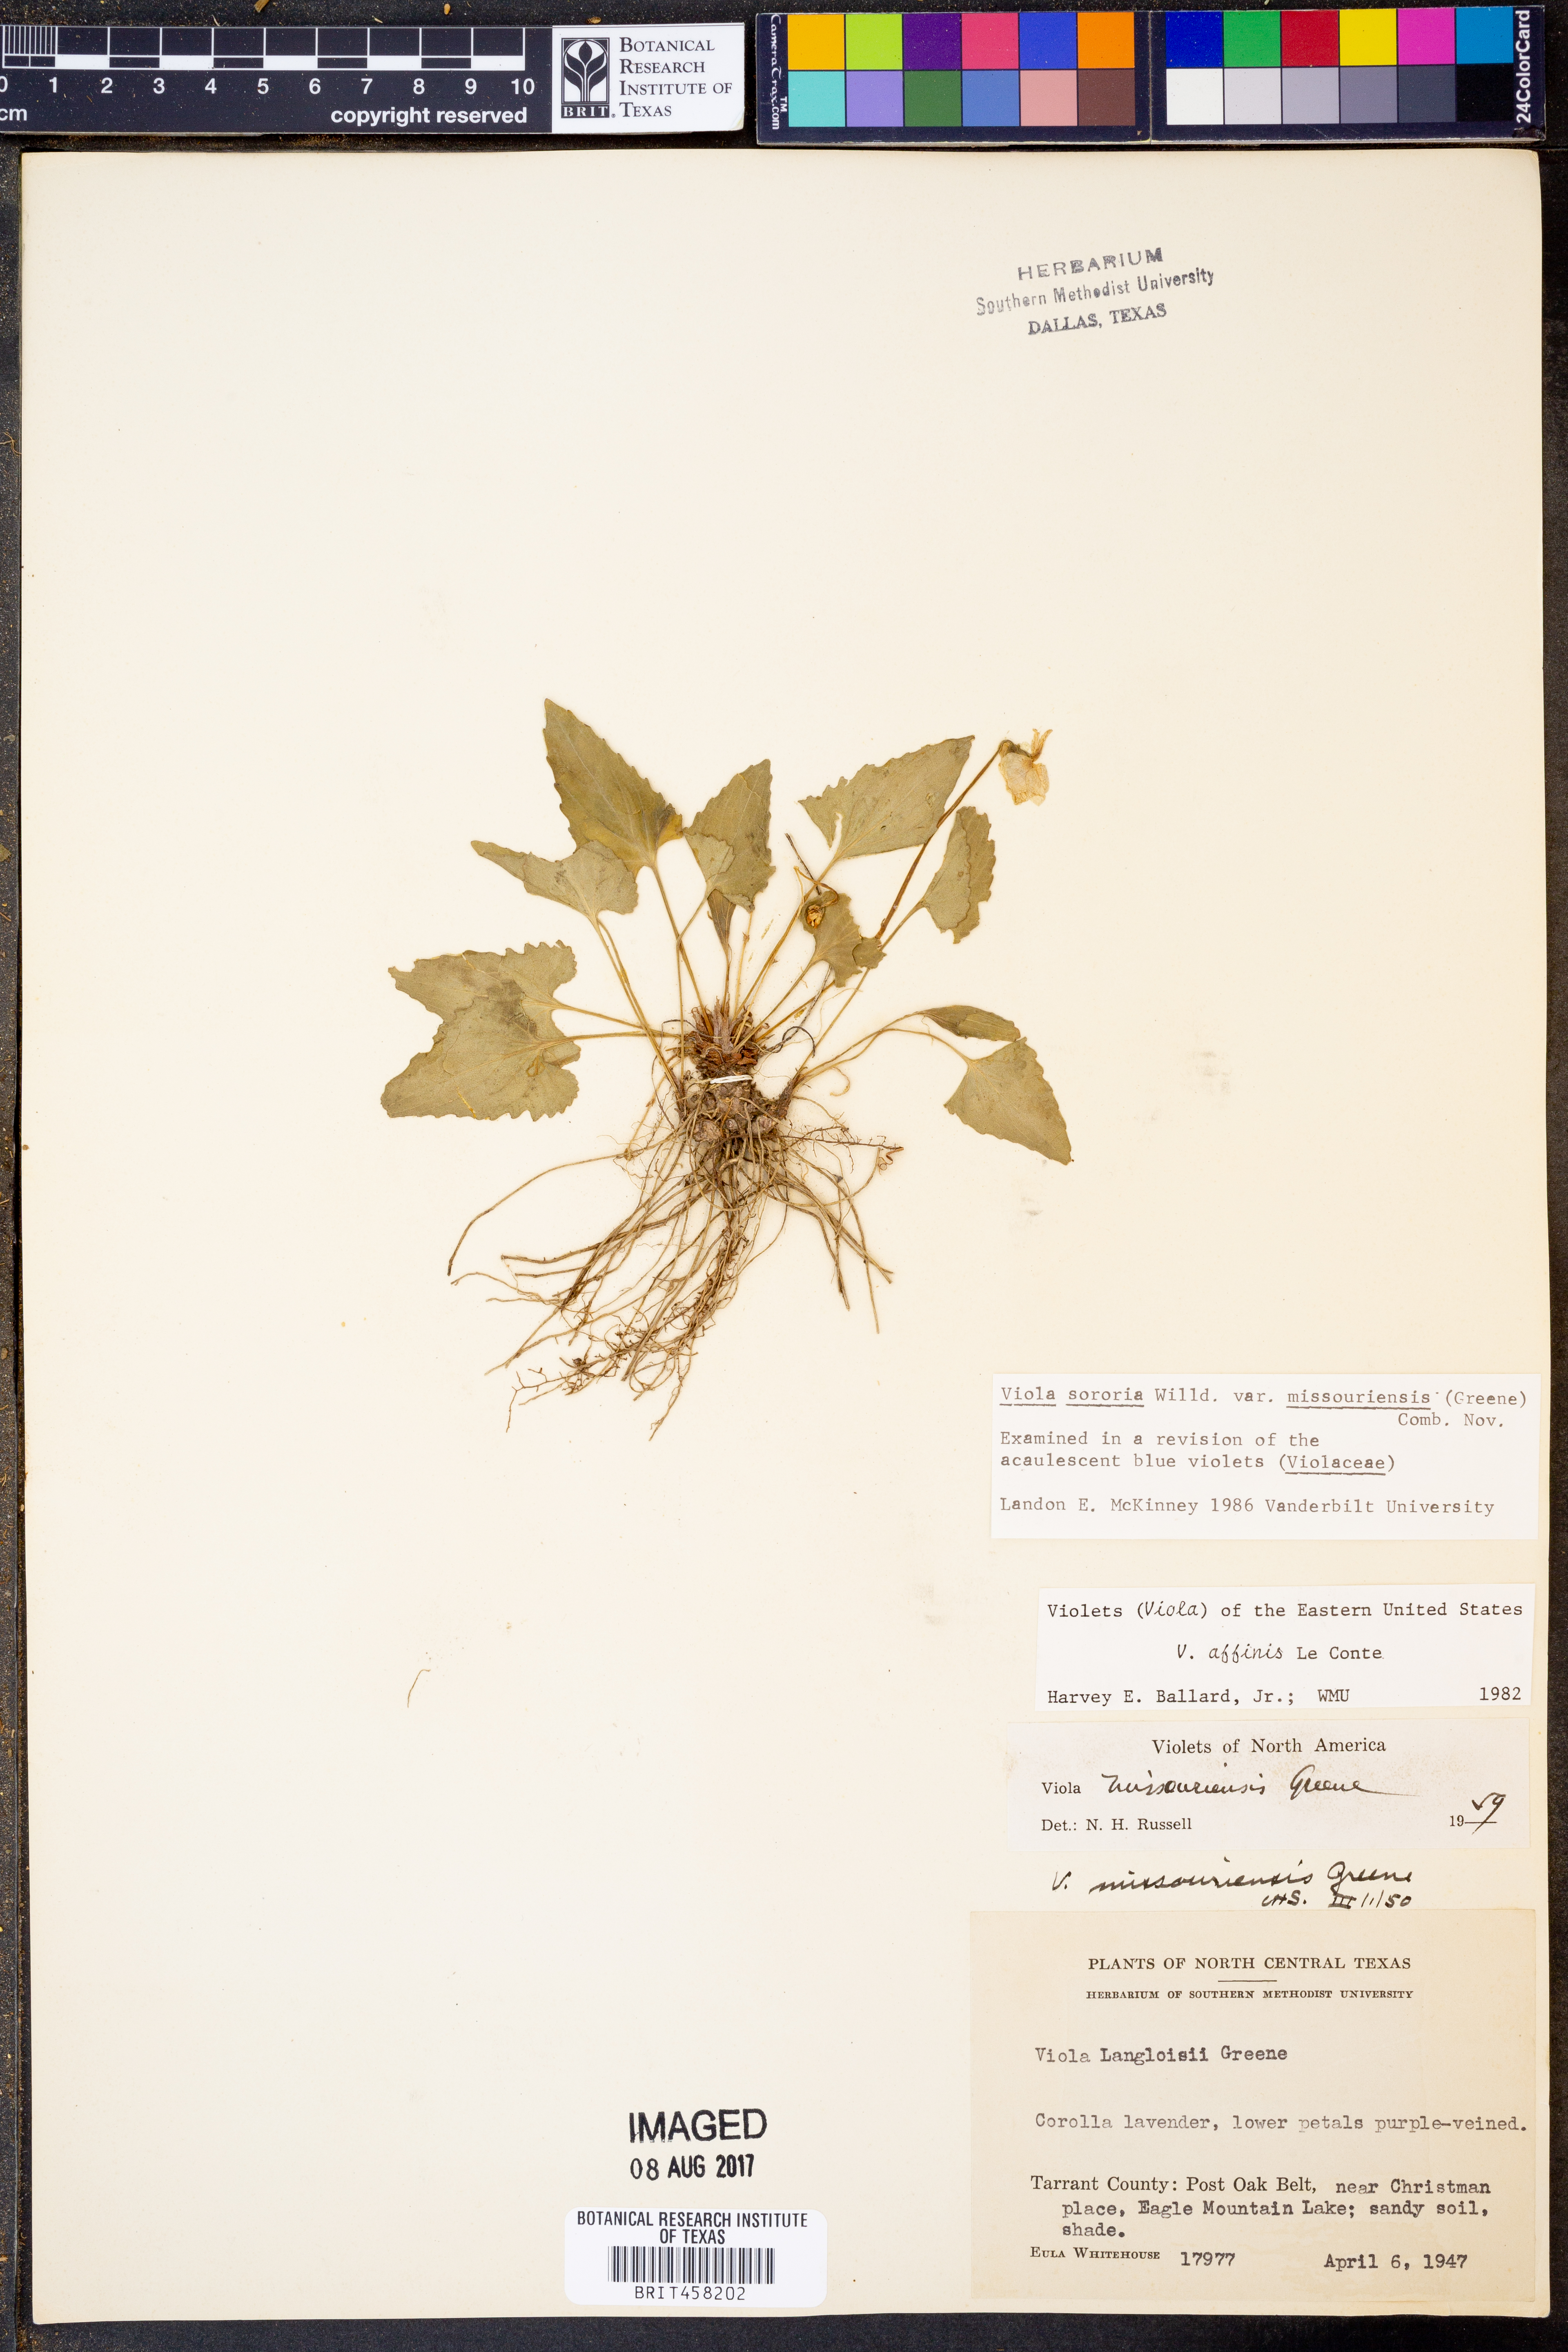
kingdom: Plantae
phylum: Tracheophyta
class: Magnoliopsida
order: Malpighiales
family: Violaceae
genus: Viola
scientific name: Viola missouriensis
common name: Missouri violet
